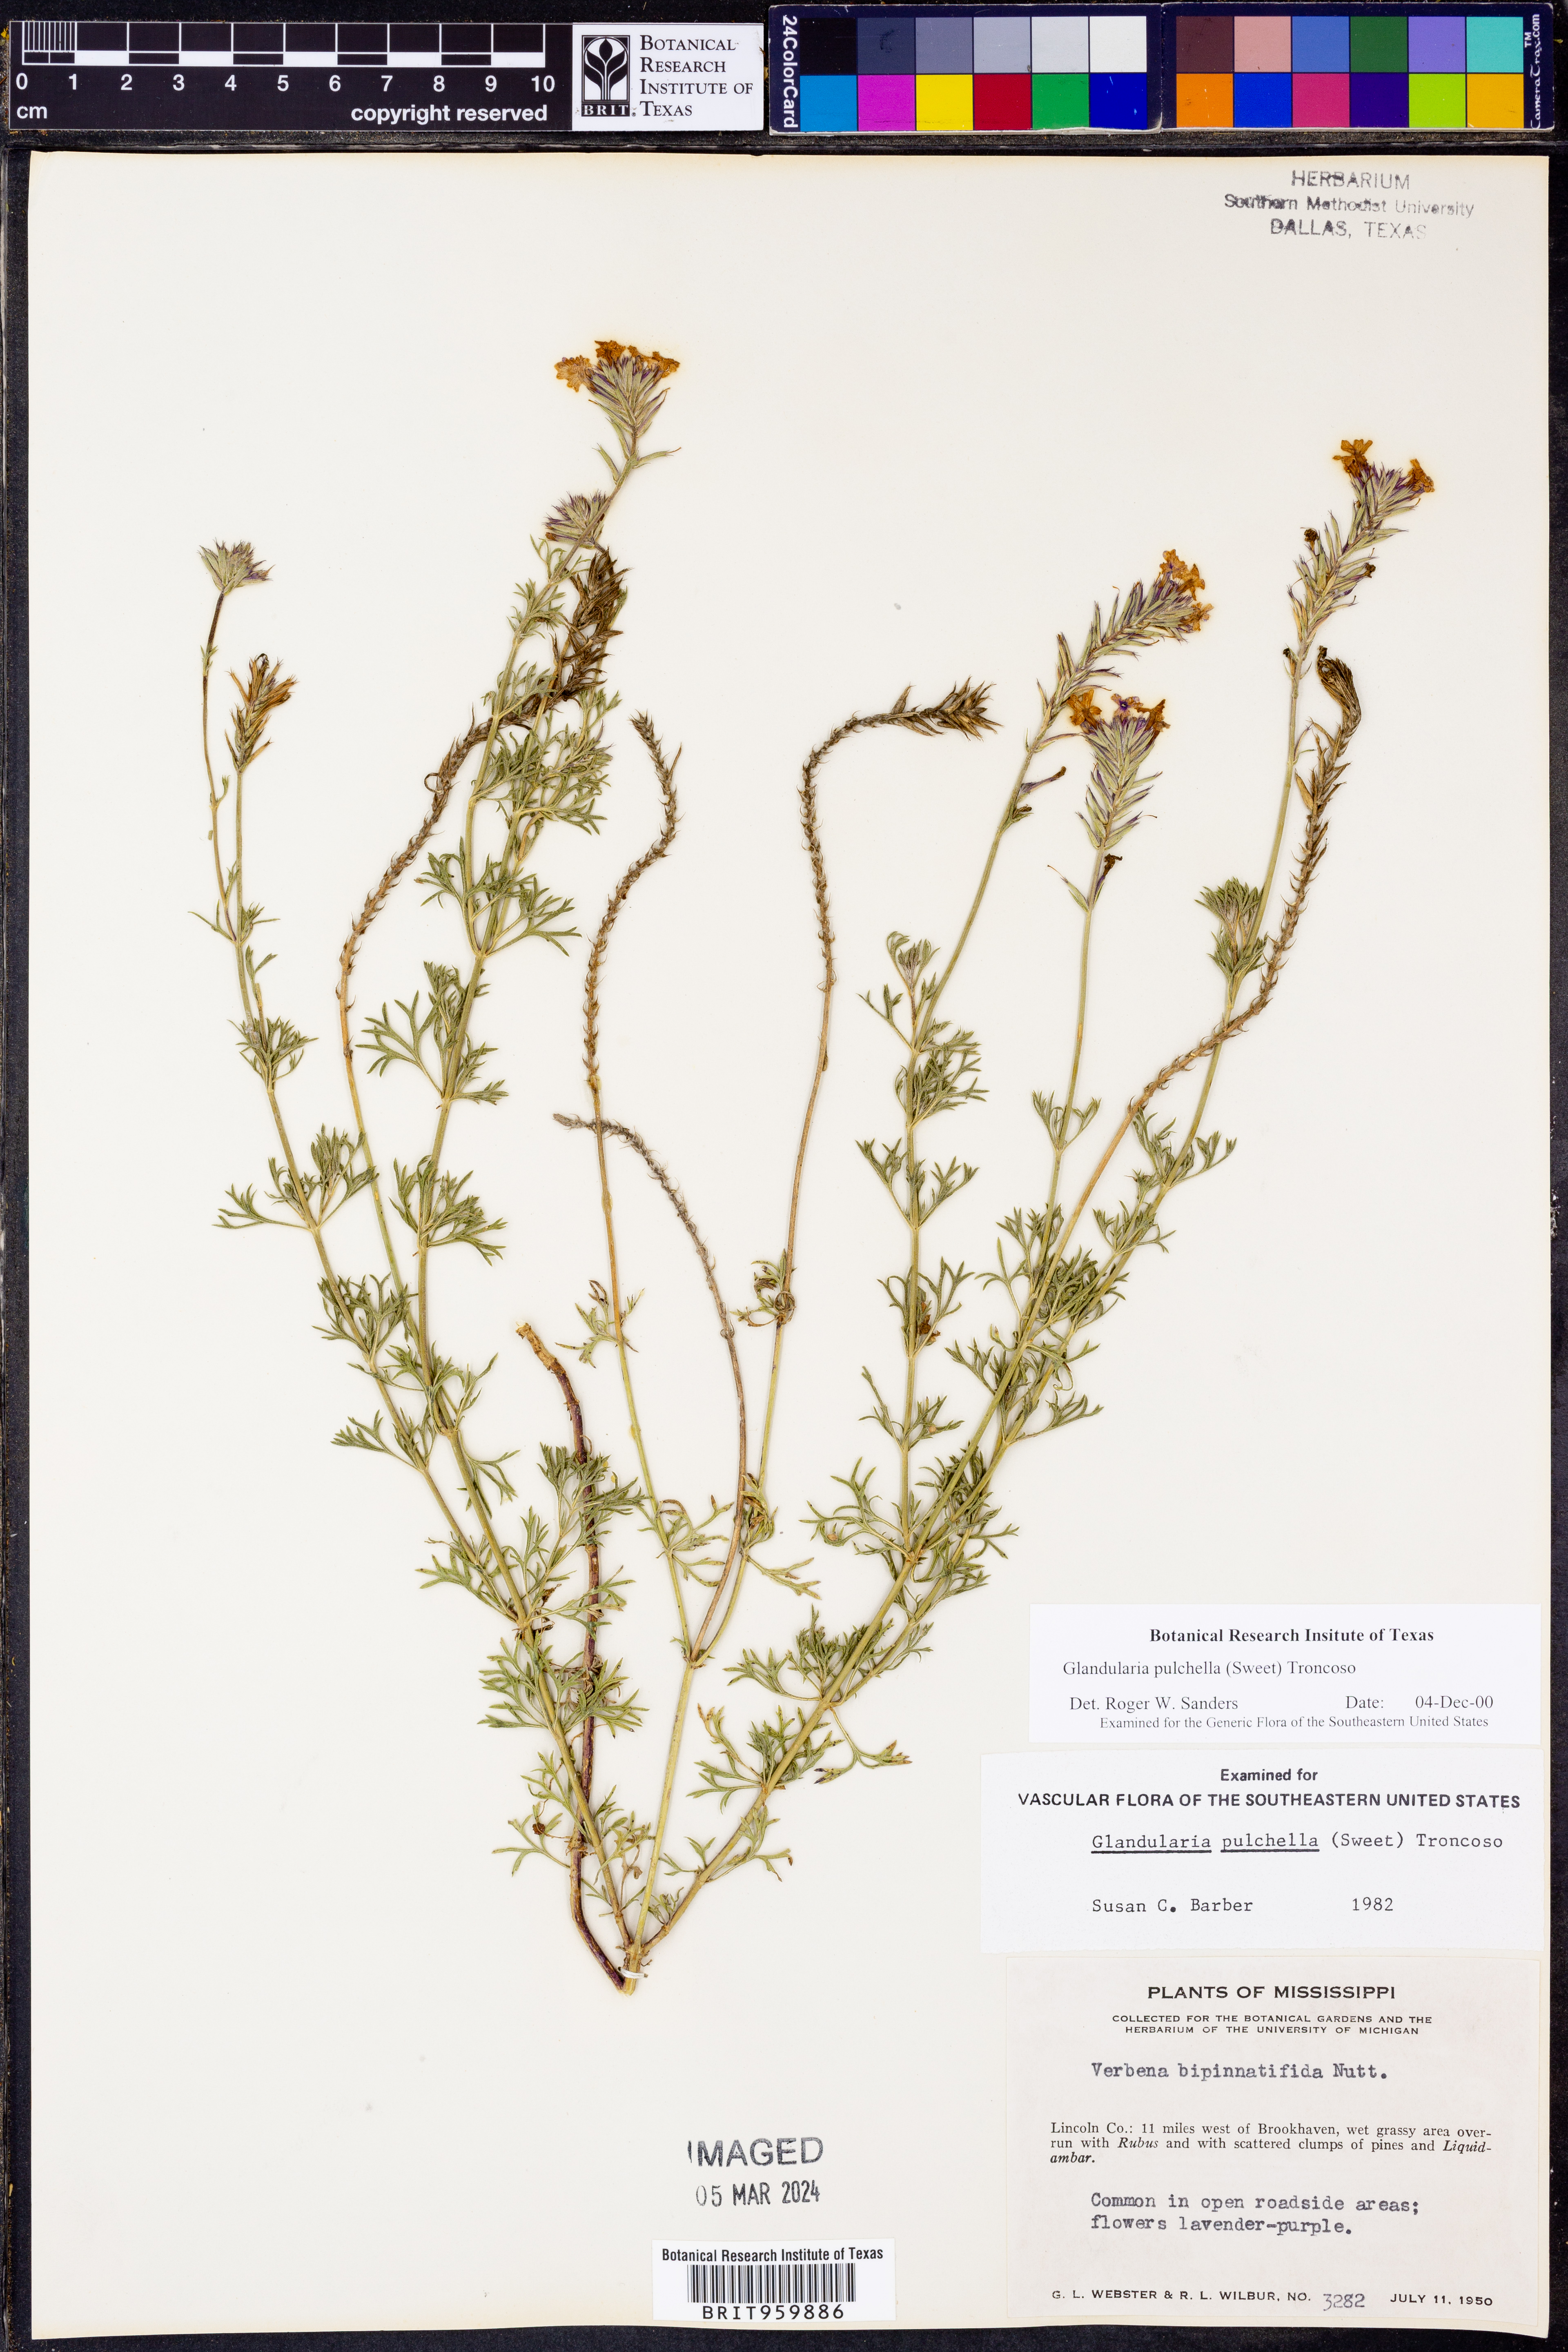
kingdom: Plantae
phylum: Tracheophyta
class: Magnoliopsida
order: Lamiales
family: Verbenaceae
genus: Verbena
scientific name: Verbena tenera
